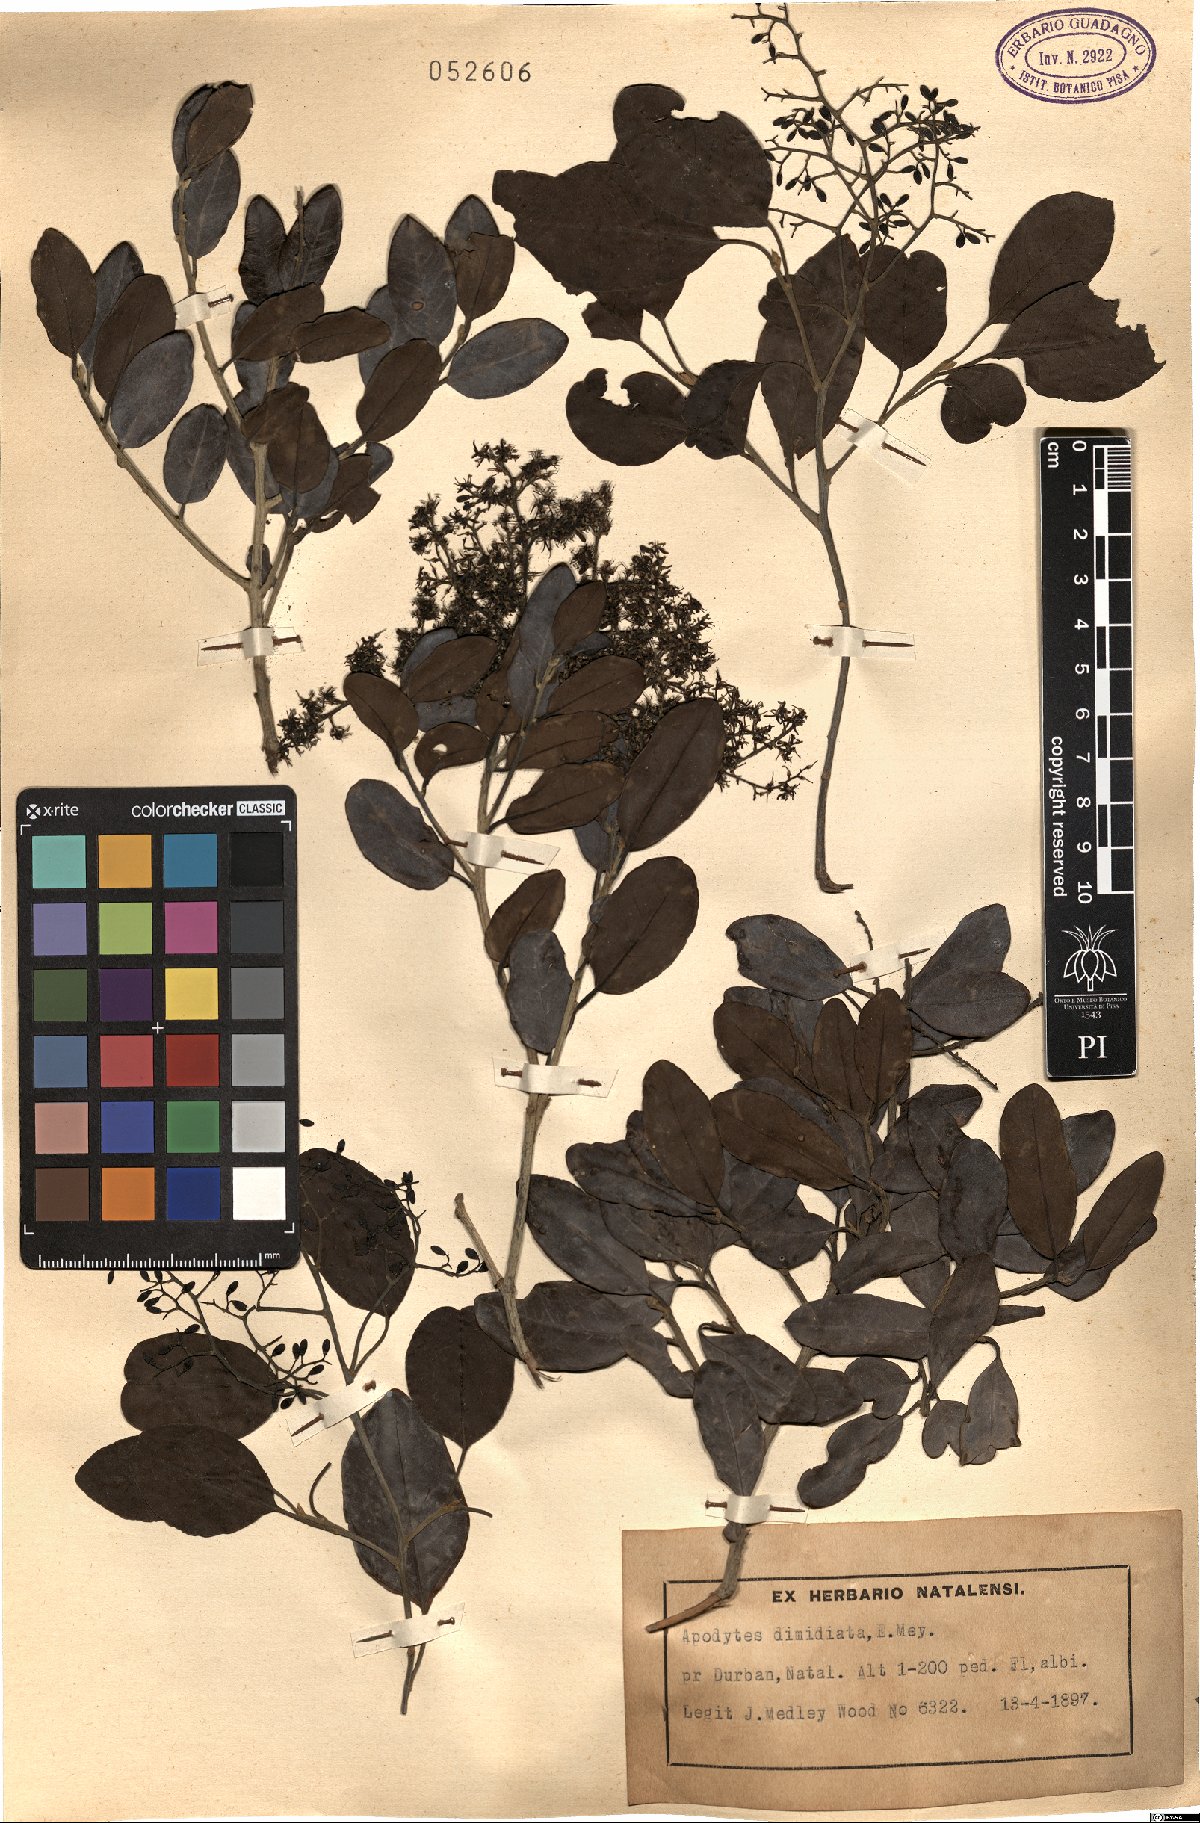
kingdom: Plantae
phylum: Tracheophyta
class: Magnoliopsida
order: Metteniusales
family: Metteniusaceae
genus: Apodytes
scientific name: Apodytes dimidiata
